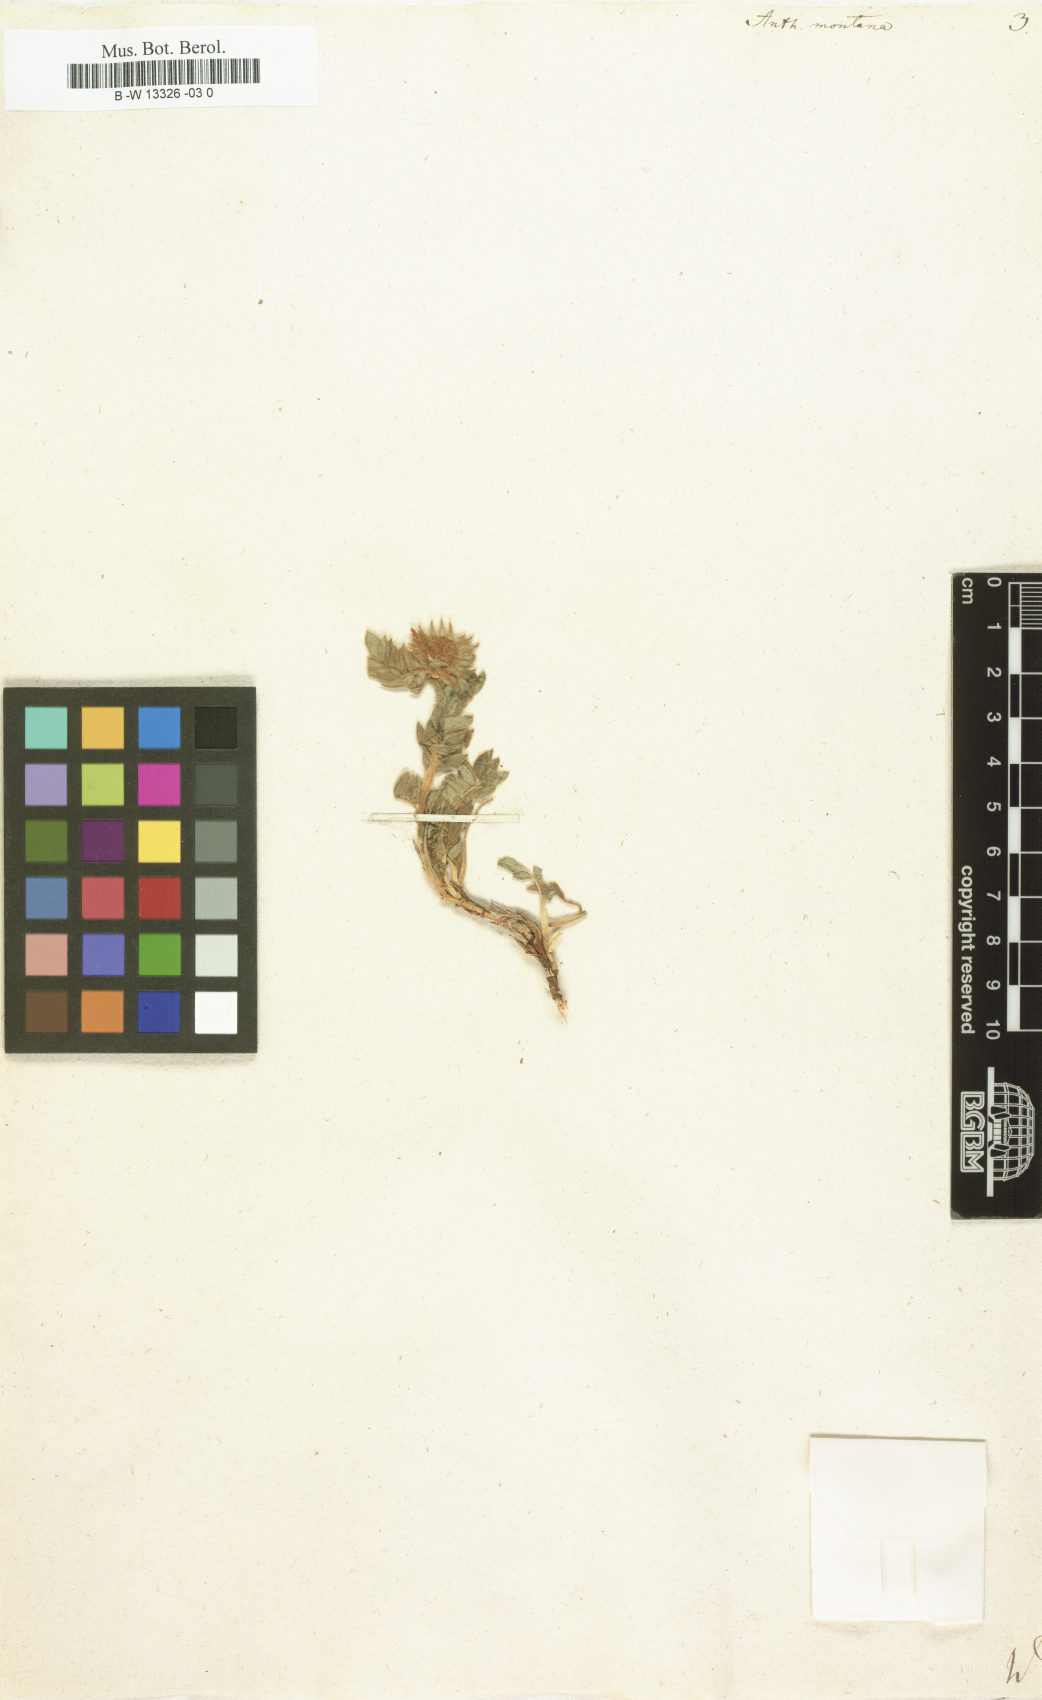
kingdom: Plantae
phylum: Tracheophyta
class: Magnoliopsida
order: Fabales
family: Fabaceae
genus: Anthyllis
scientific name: Anthyllis montana
